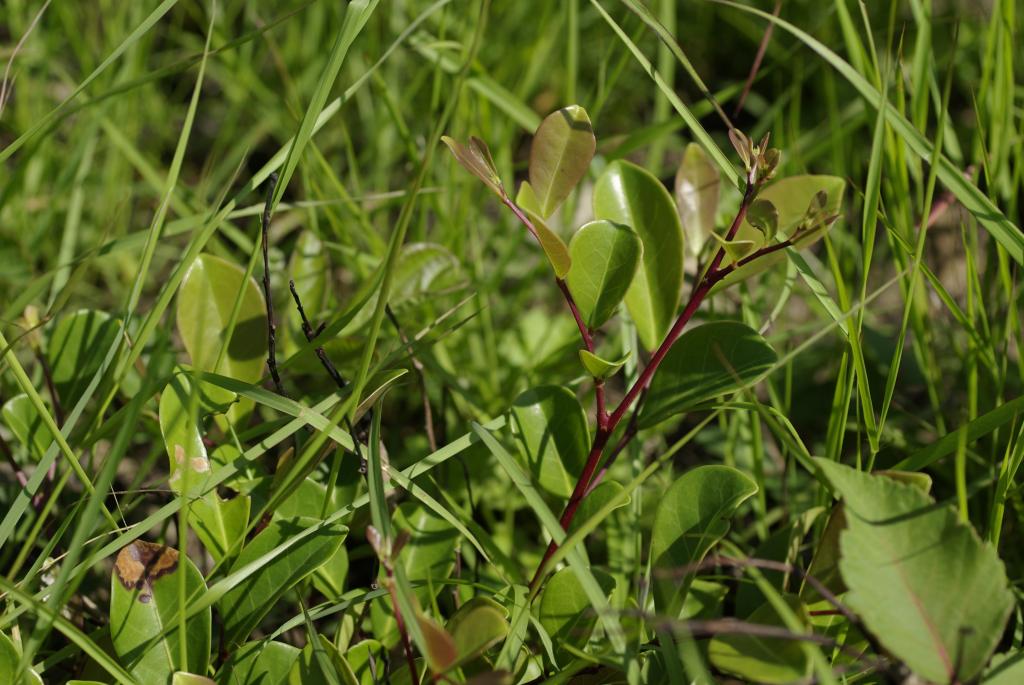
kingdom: Plantae
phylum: Tracheophyta
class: Magnoliopsida
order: Malpighiales
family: Phyllanthaceae
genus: Glochidion
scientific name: Glochidion rubrum
